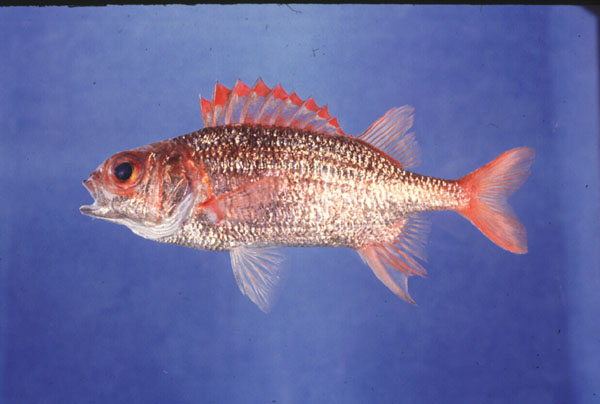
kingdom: Animalia
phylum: Chordata
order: Beryciformes
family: Holocentridae
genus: Sargocentron
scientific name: Sargocentron punctatissimum
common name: Peppered squirrelfish
